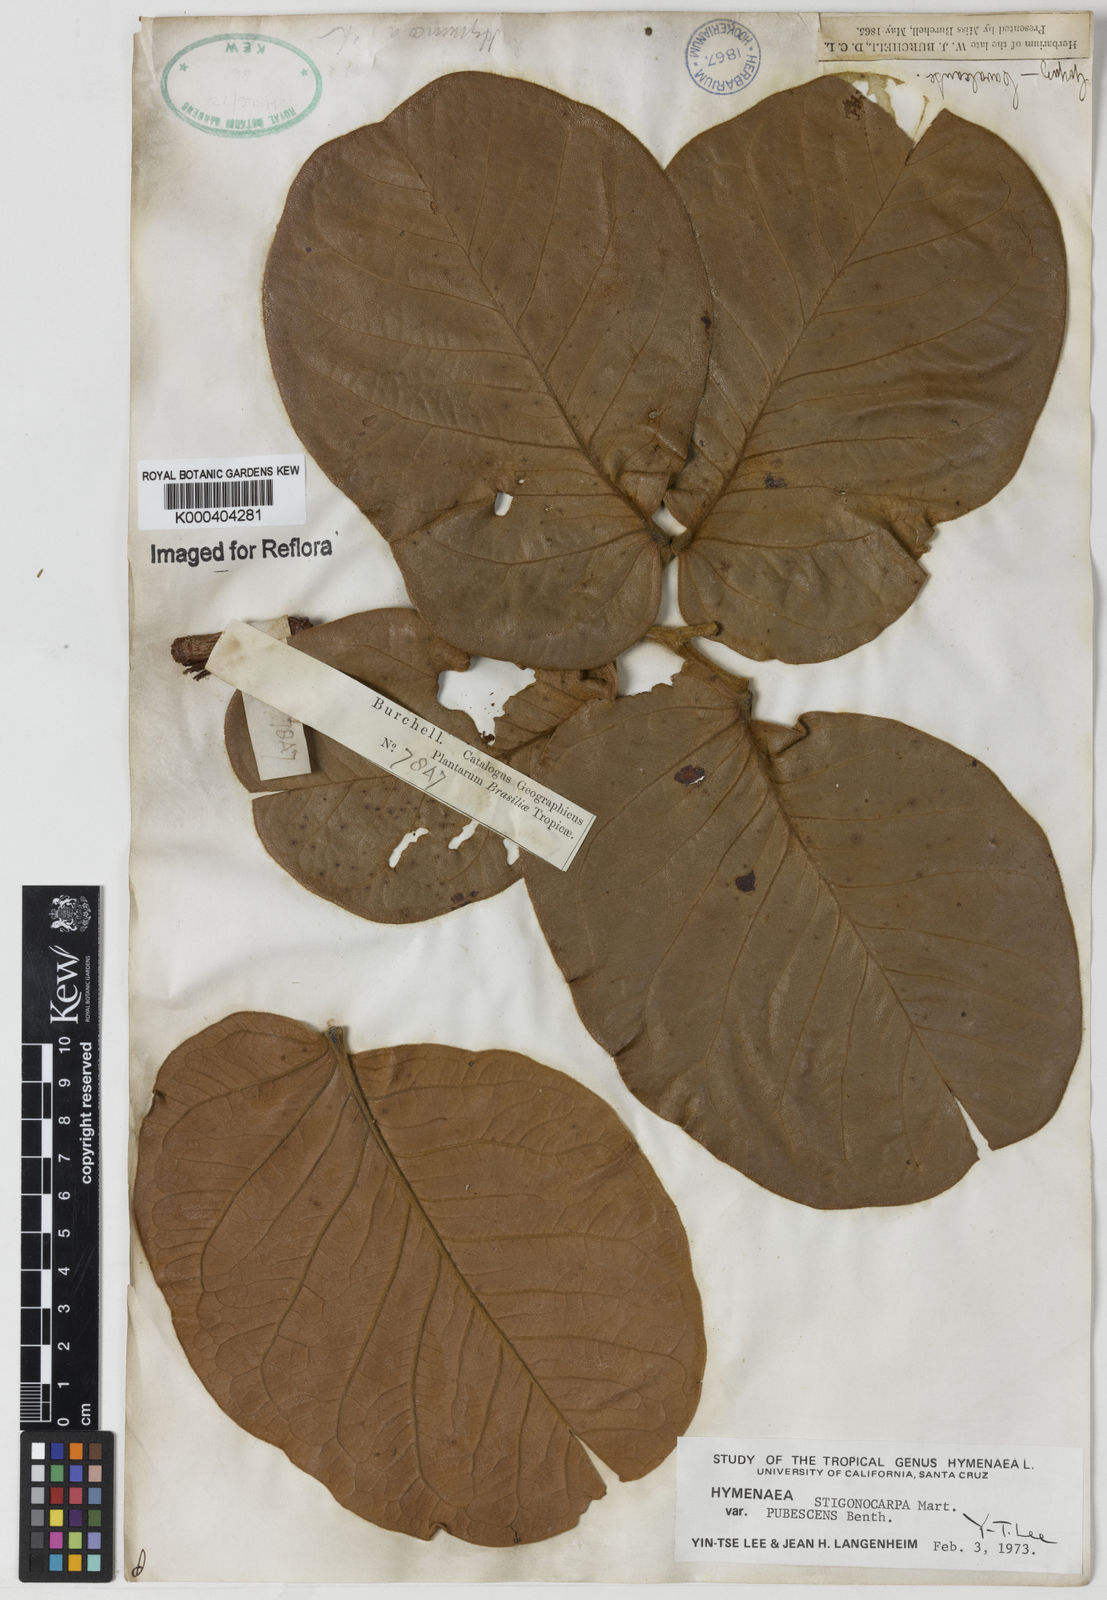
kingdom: Plantae
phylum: Tracheophyta
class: Magnoliopsida
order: Fabales
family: Fabaceae
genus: Hymenaea
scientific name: Hymenaea stigonocarpa
